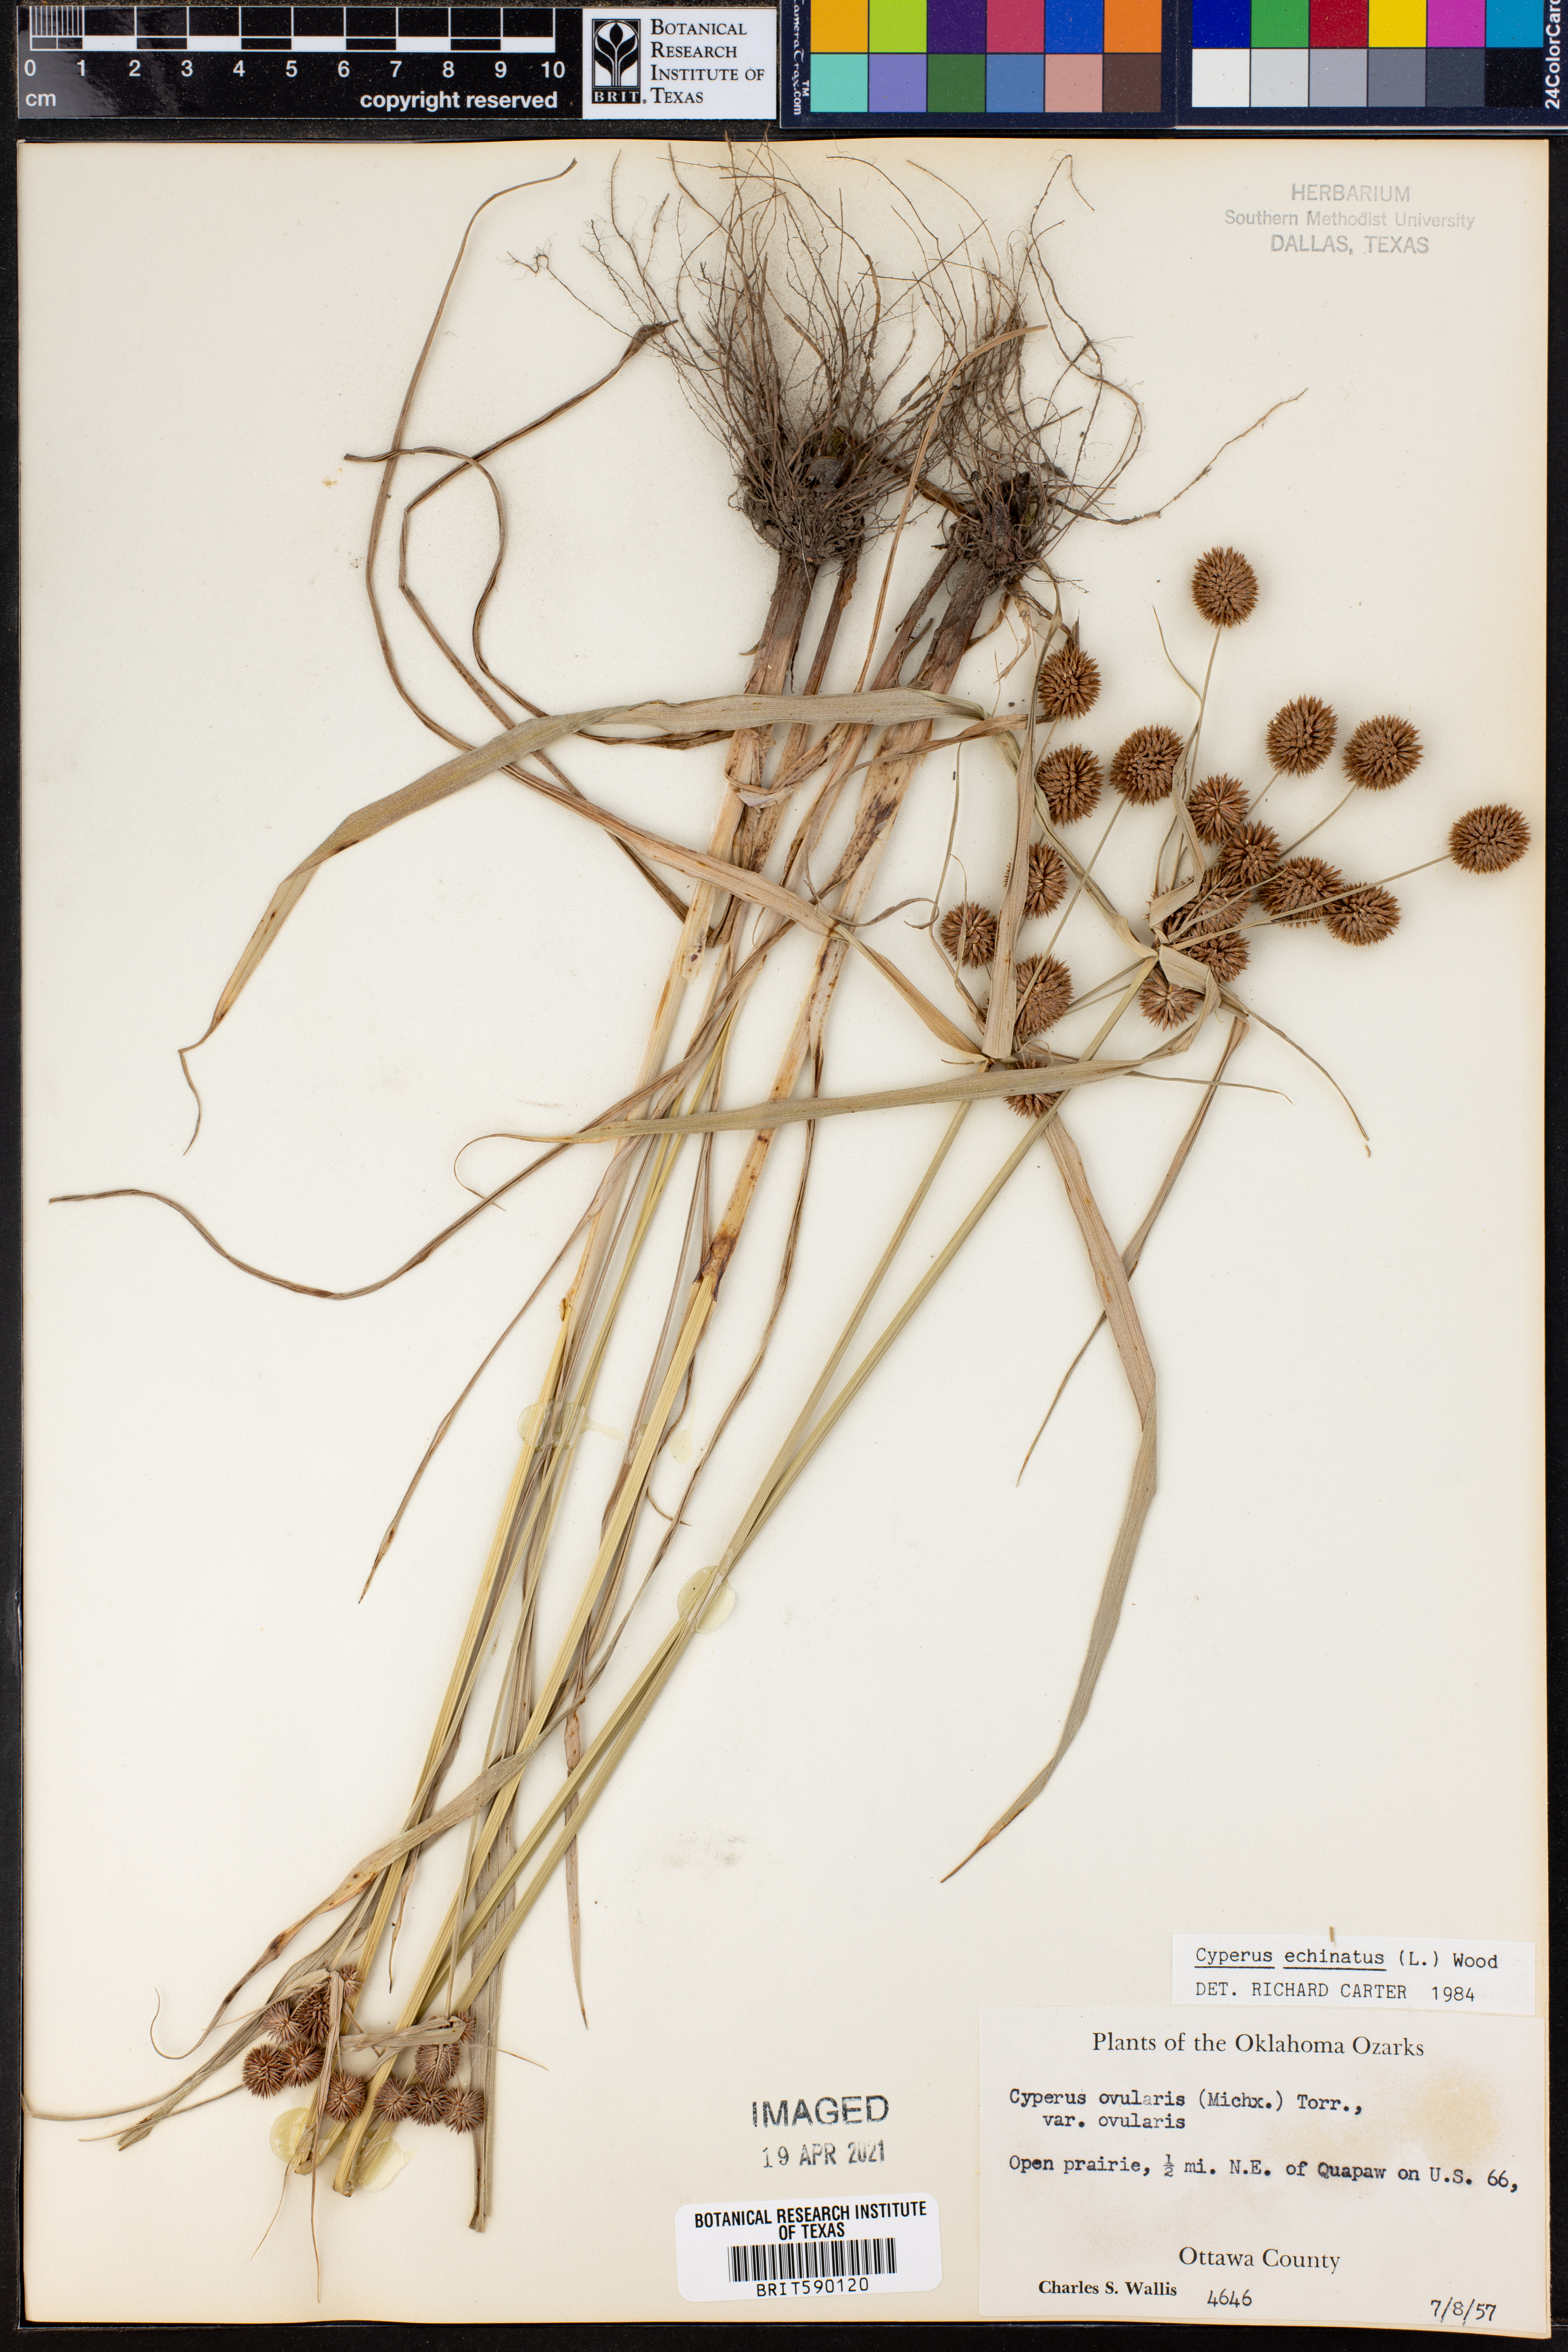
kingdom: Plantae
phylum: Tracheophyta
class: Liliopsida
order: Poales
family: Cyperaceae
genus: Cyperus
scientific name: Cyperus echinatus
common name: Teasel sedge
